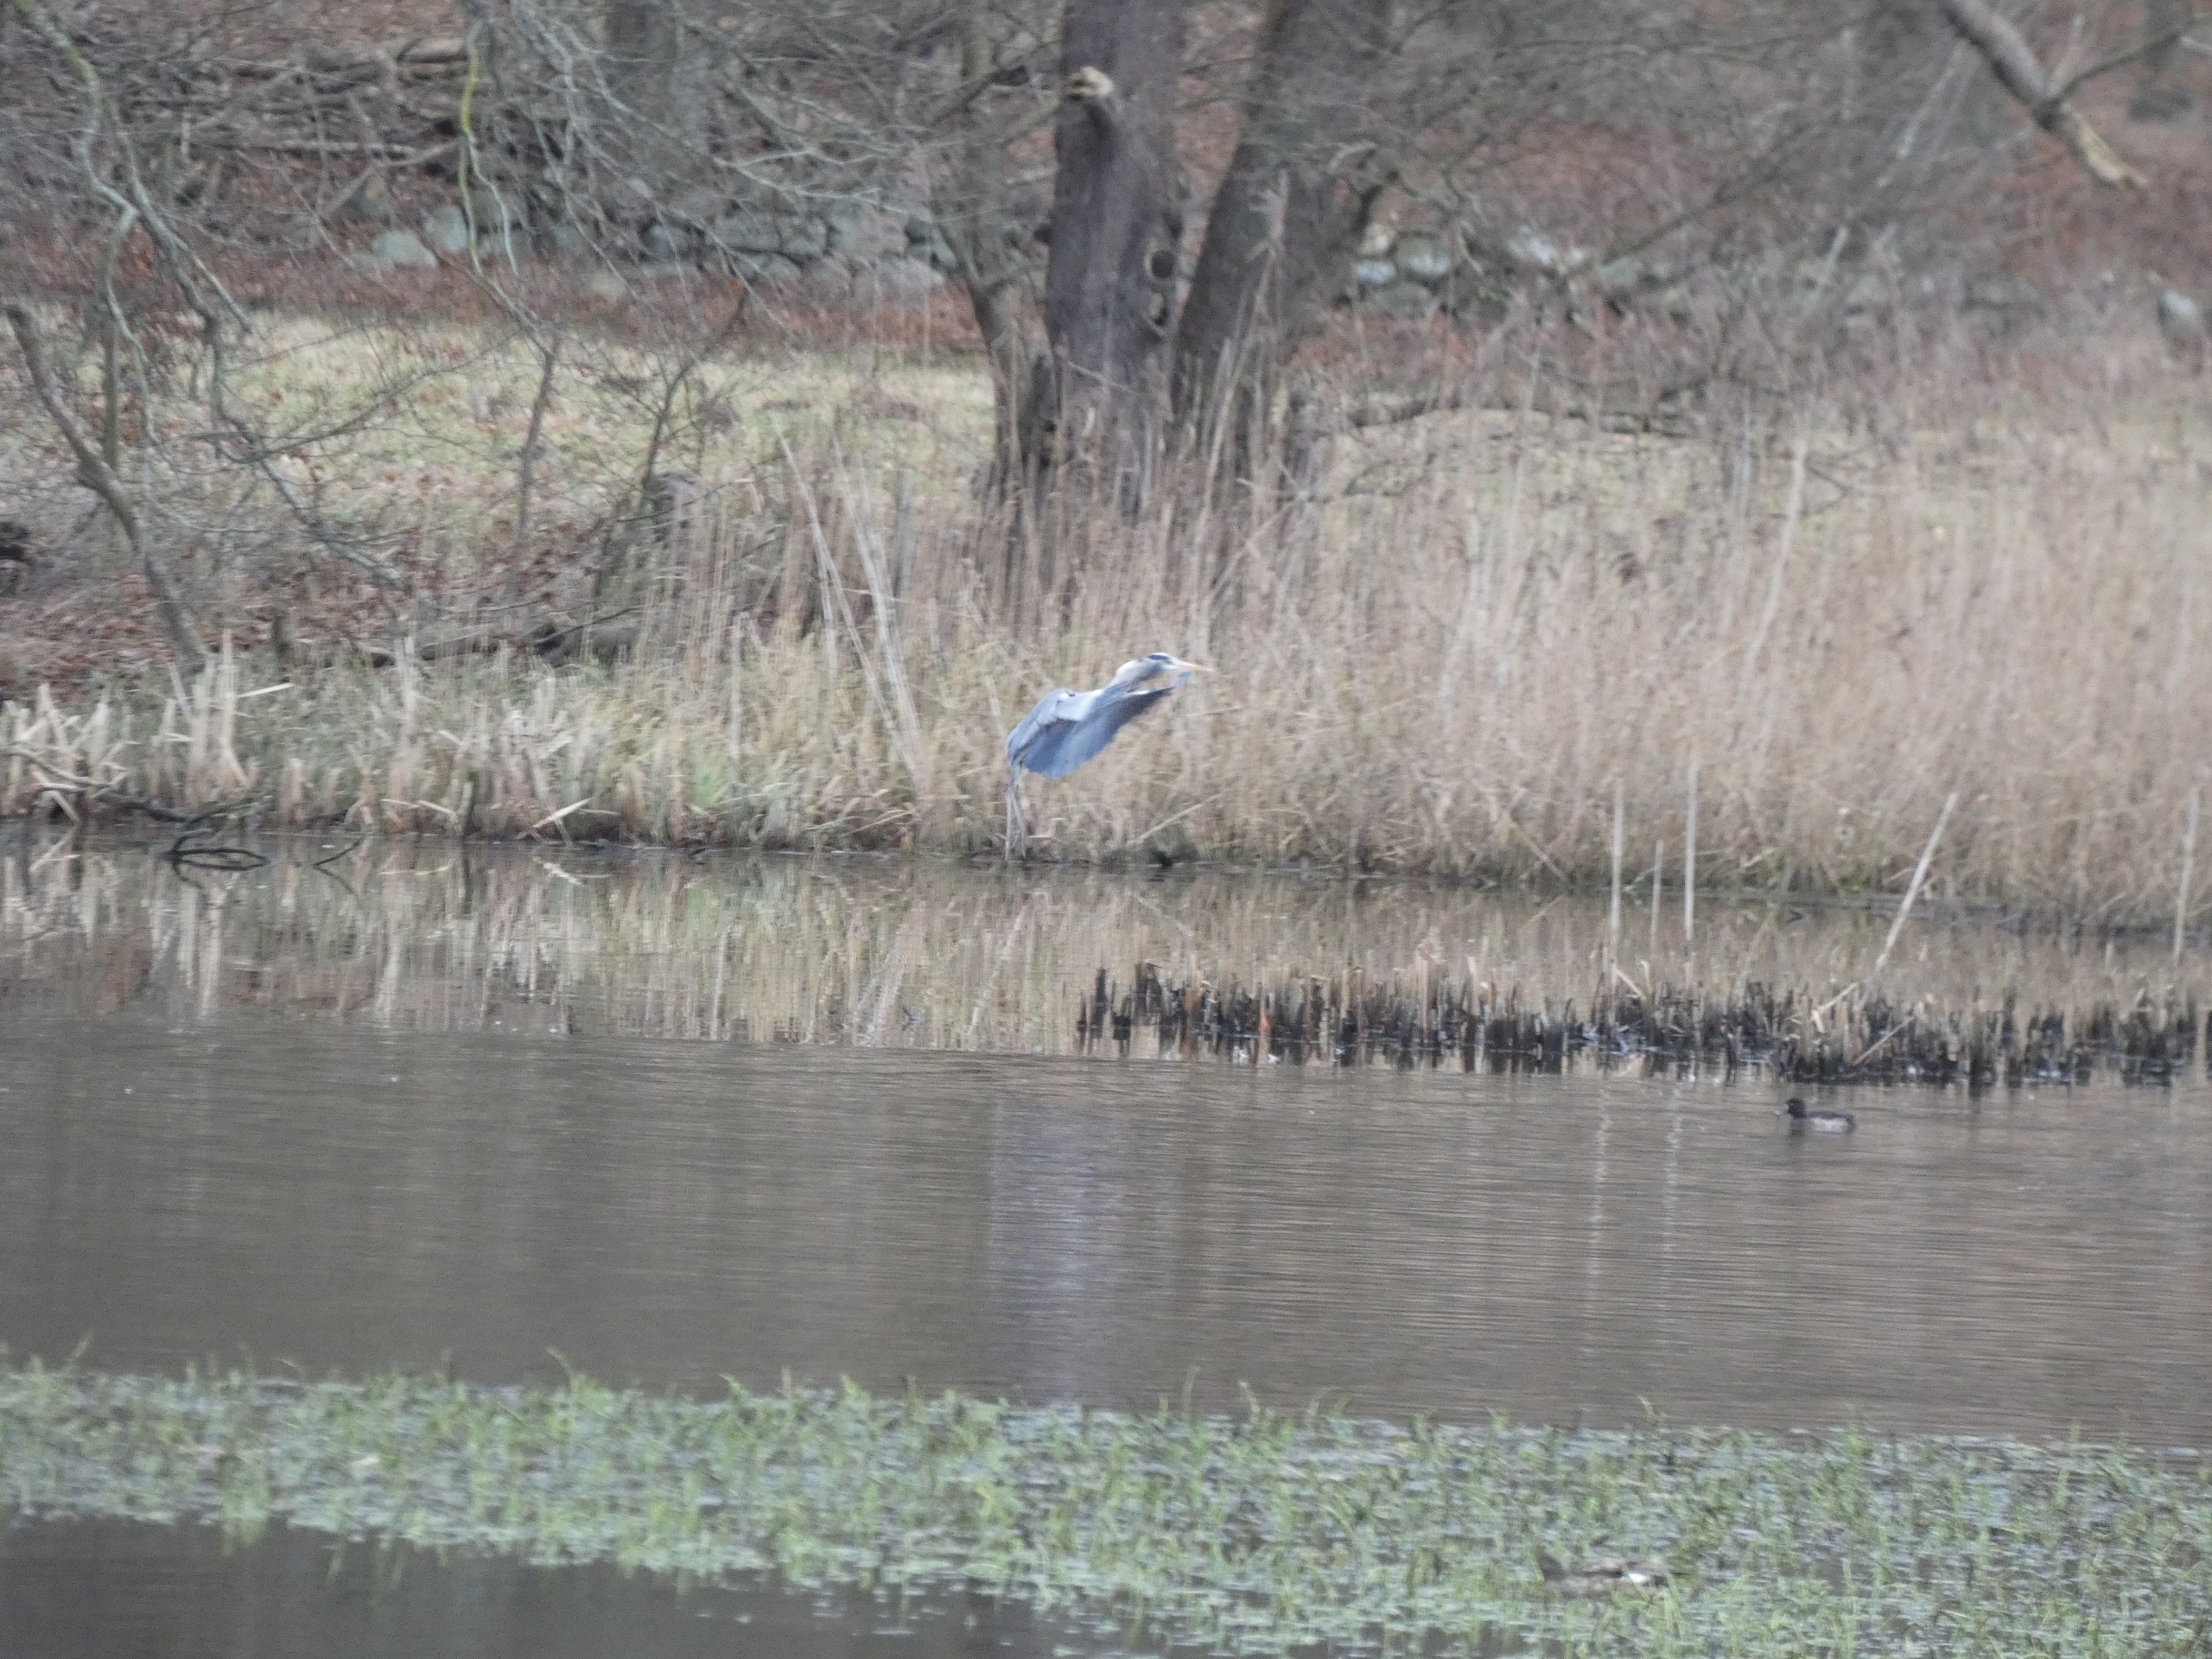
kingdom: Animalia
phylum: Chordata
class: Aves
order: Pelecaniformes
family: Ardeidae
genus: Ardea
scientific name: Ardea cinerea
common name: Fiskehejre
